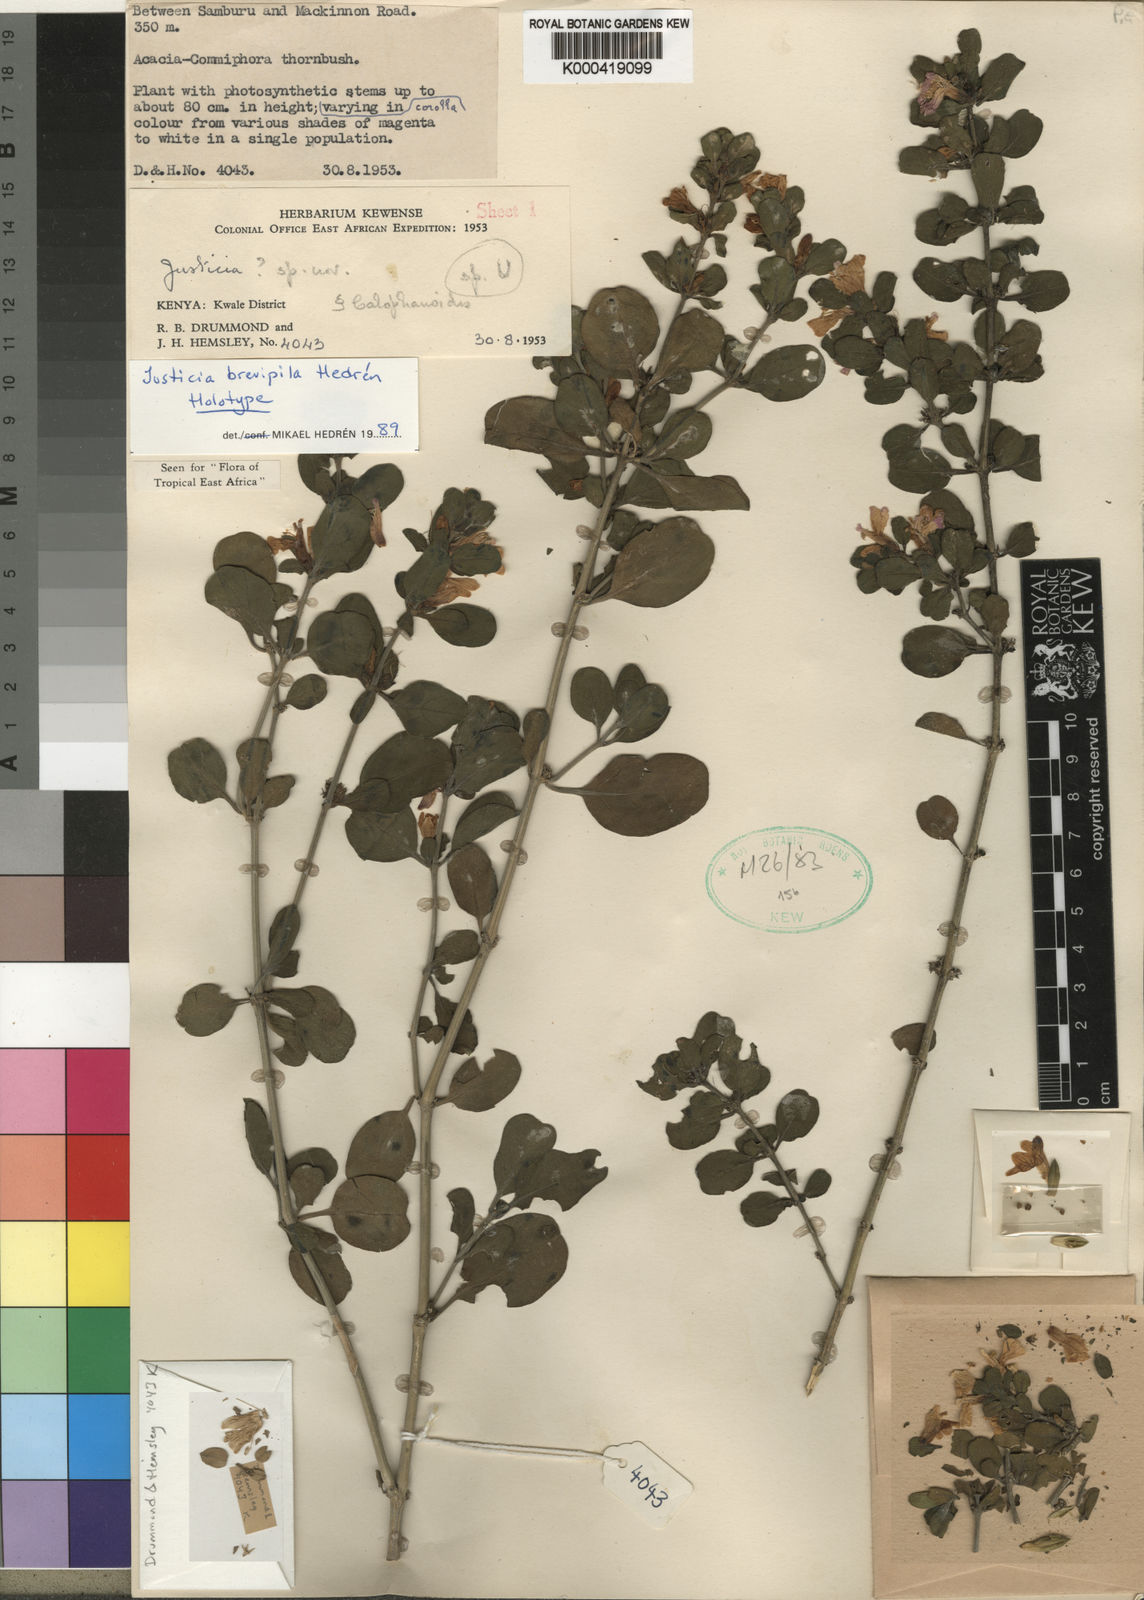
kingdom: Plantae
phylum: Tracheophyta
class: Magnoliopsida
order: Lamiales
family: Acanthaceae
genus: Justicia
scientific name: Justicia
